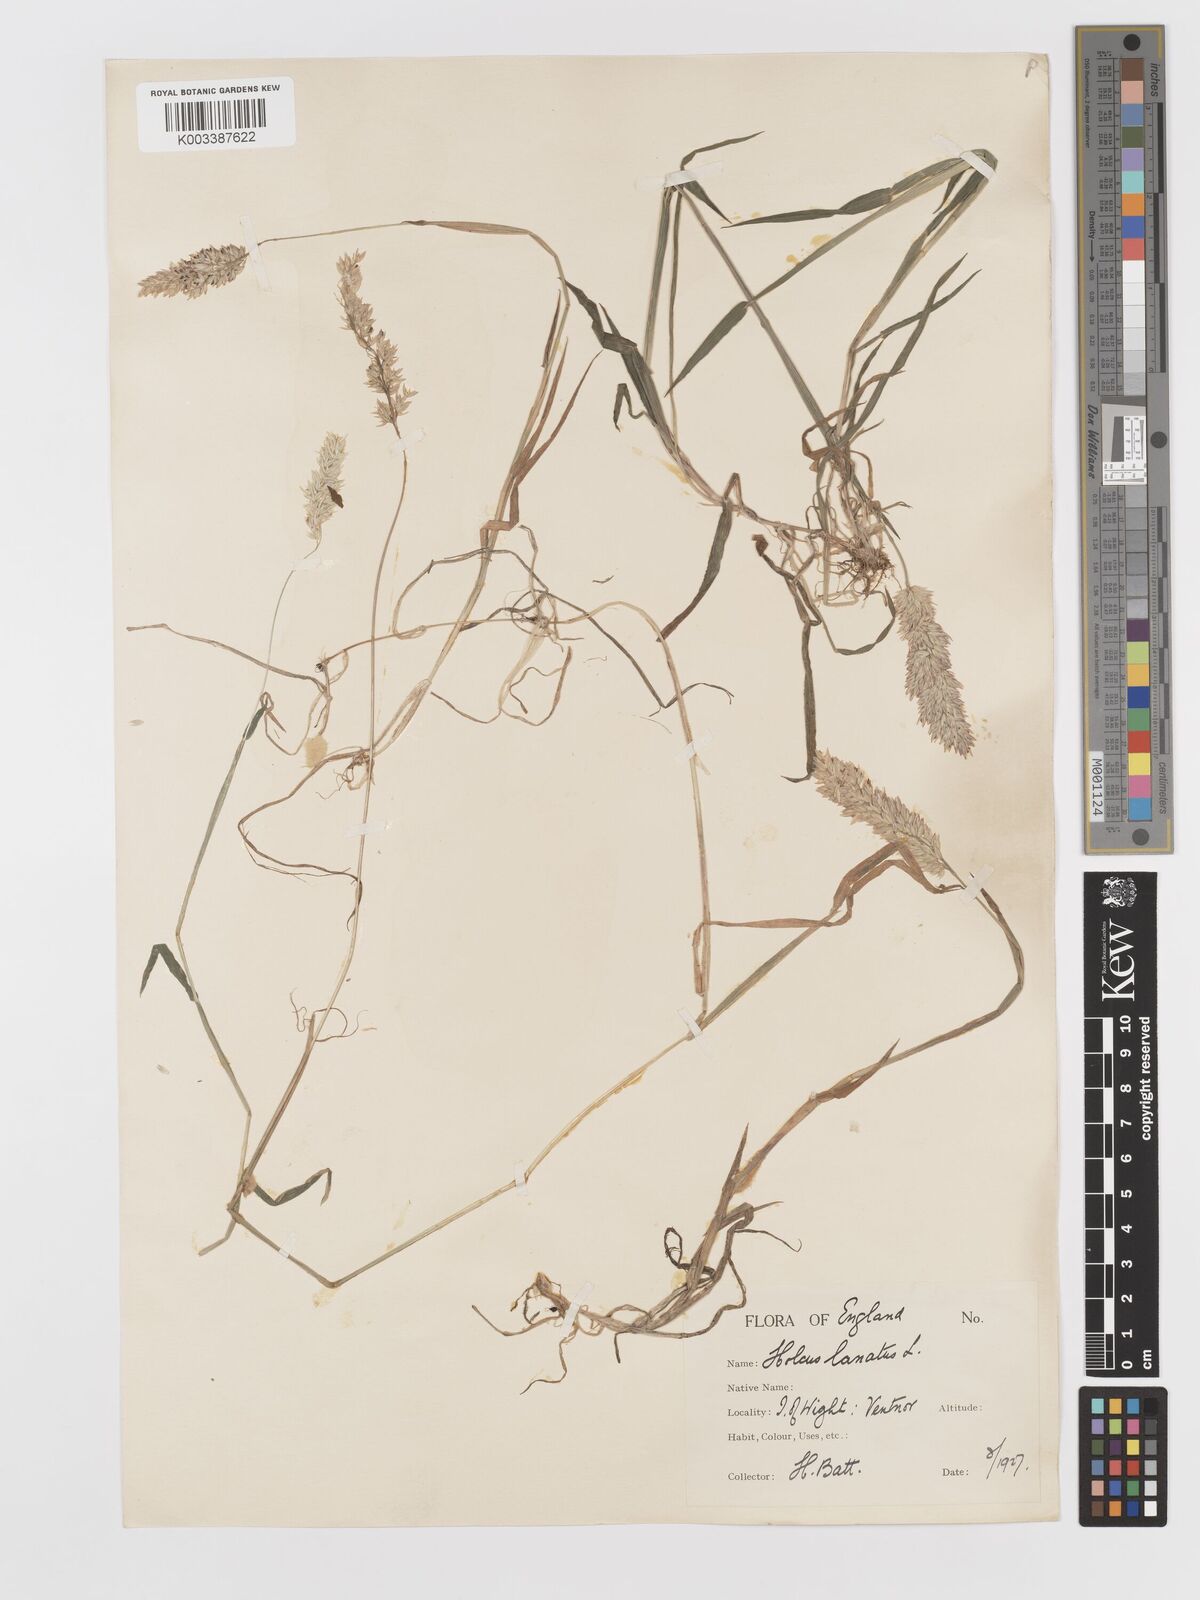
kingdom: Plantae
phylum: Tracheophyta
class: Liliopsida
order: Poales
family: Poaceae
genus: Holcus
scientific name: Holcus lanatus
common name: Yorkshire-fog
